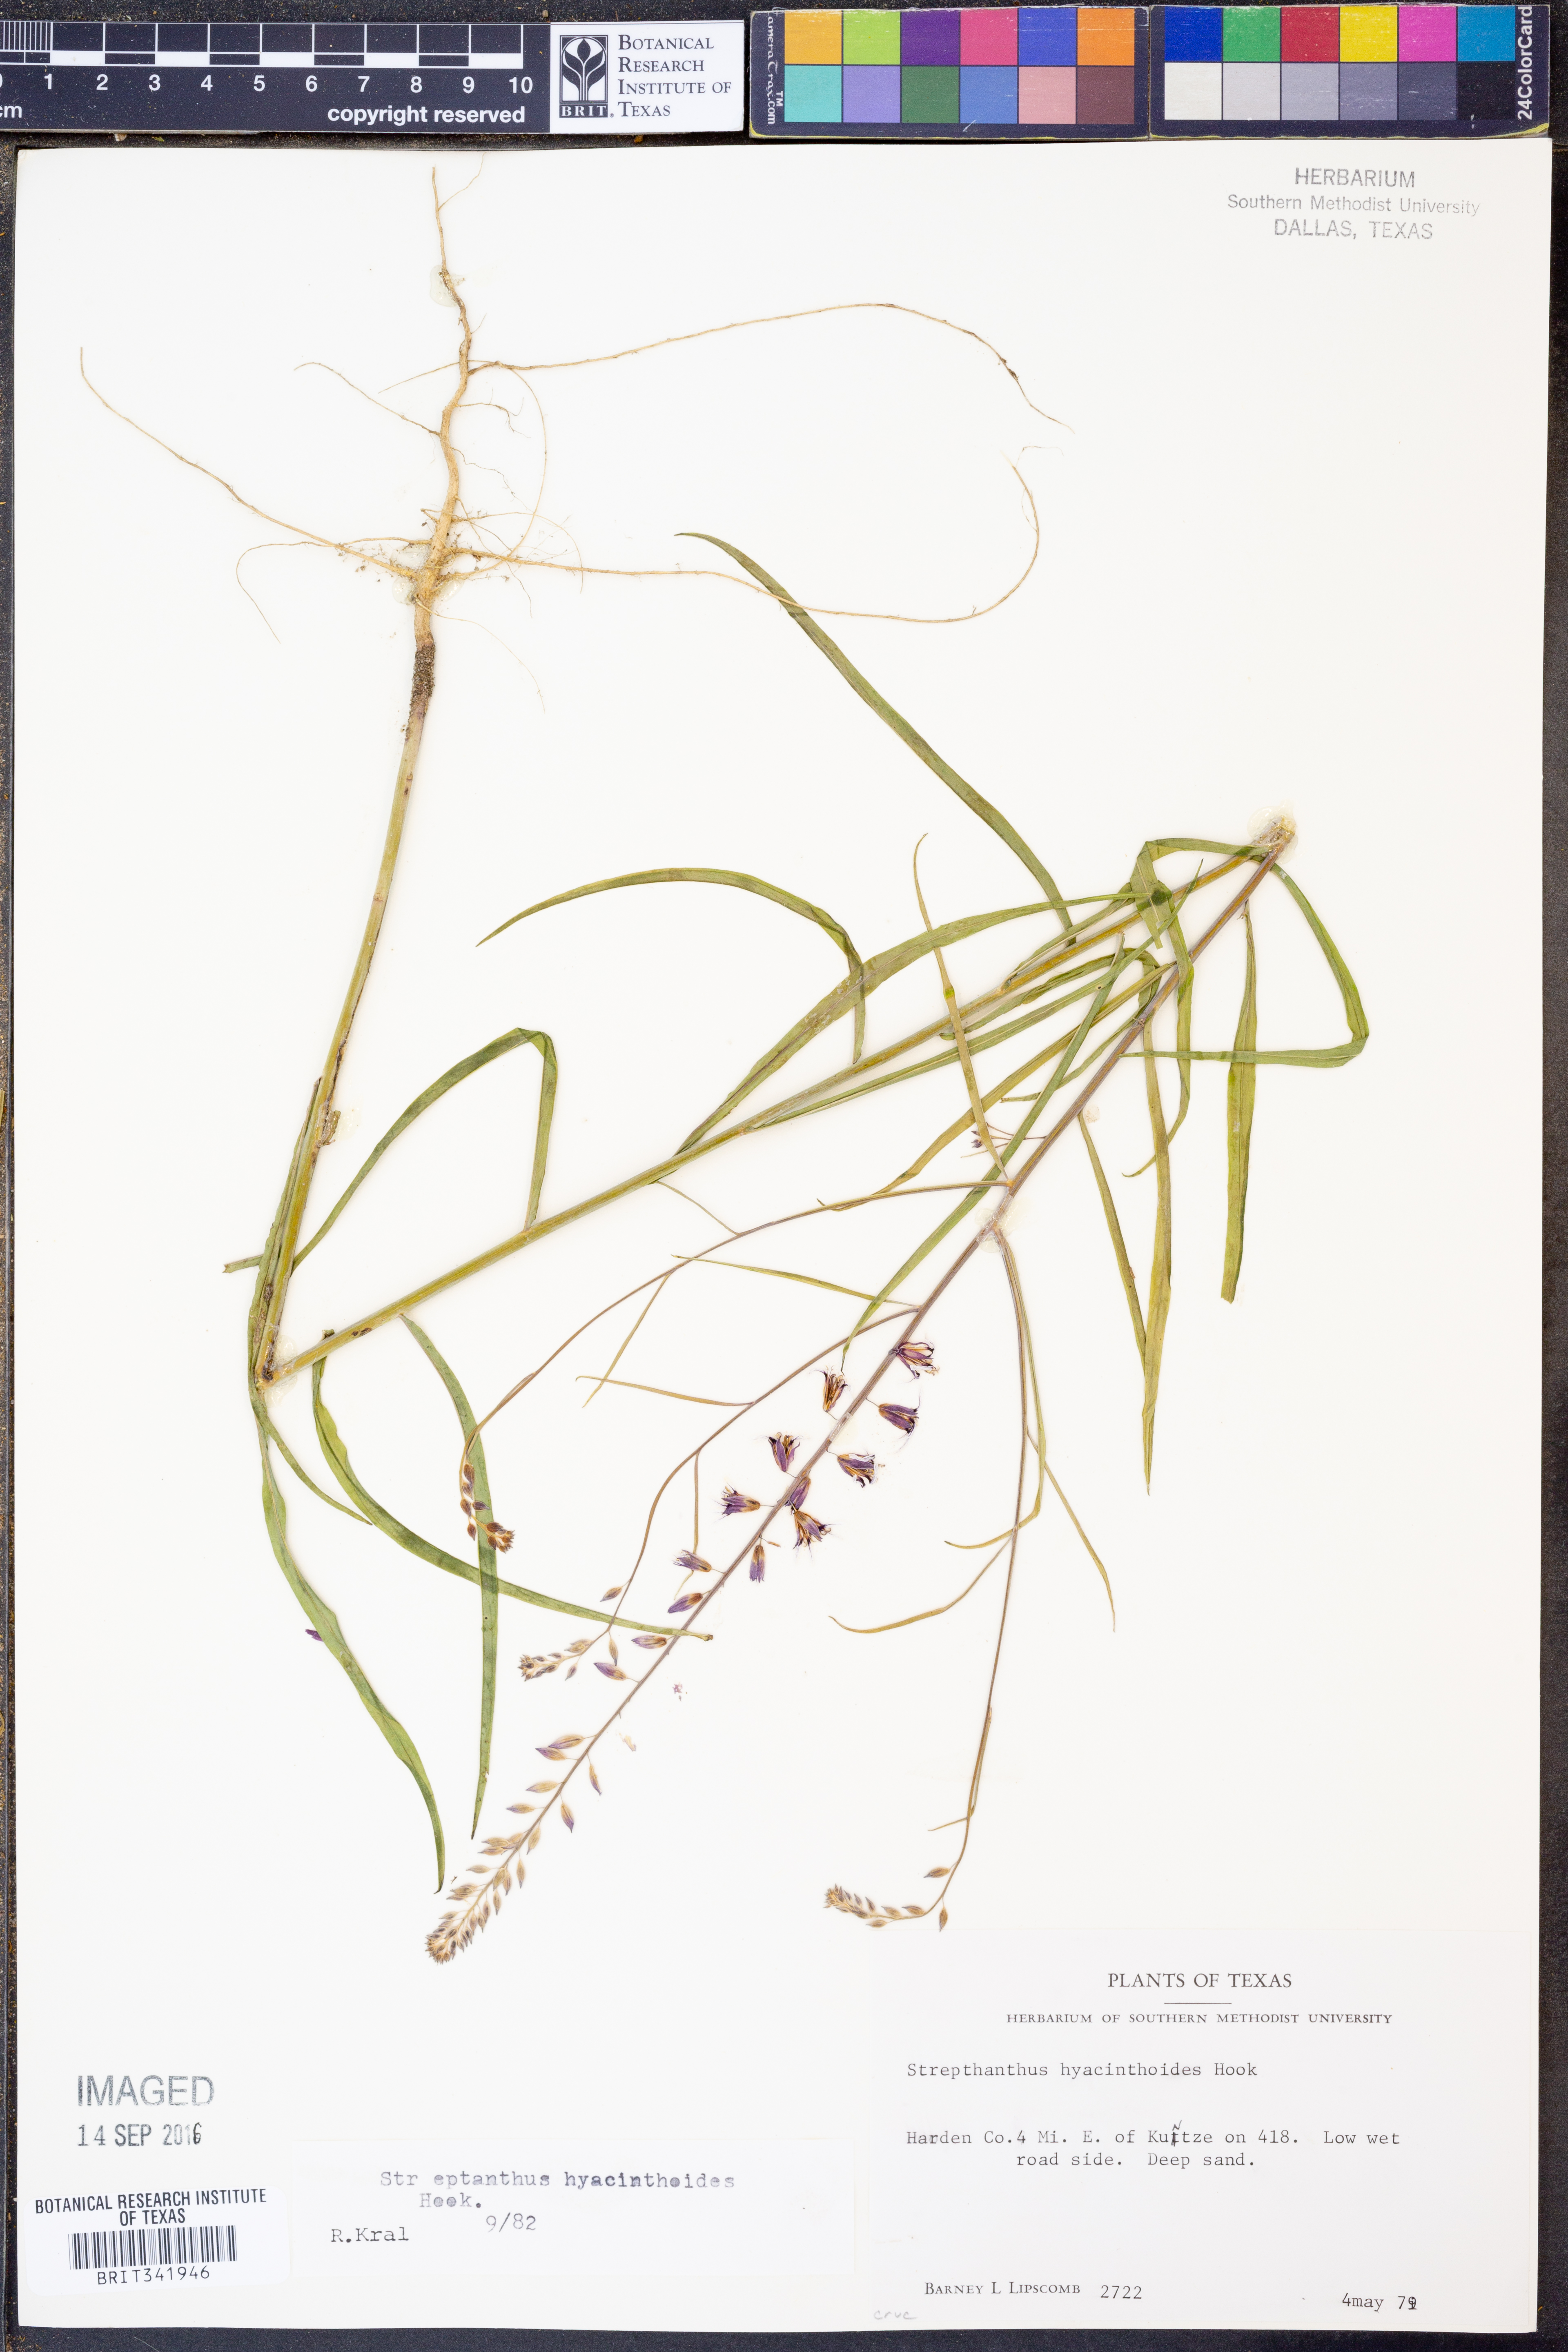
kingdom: Plantae
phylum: Tracheophyta
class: Magnoliopsida
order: Brassicales
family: Brassicaceae
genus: Streptanthus
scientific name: Streptanthus hyacinthoides
